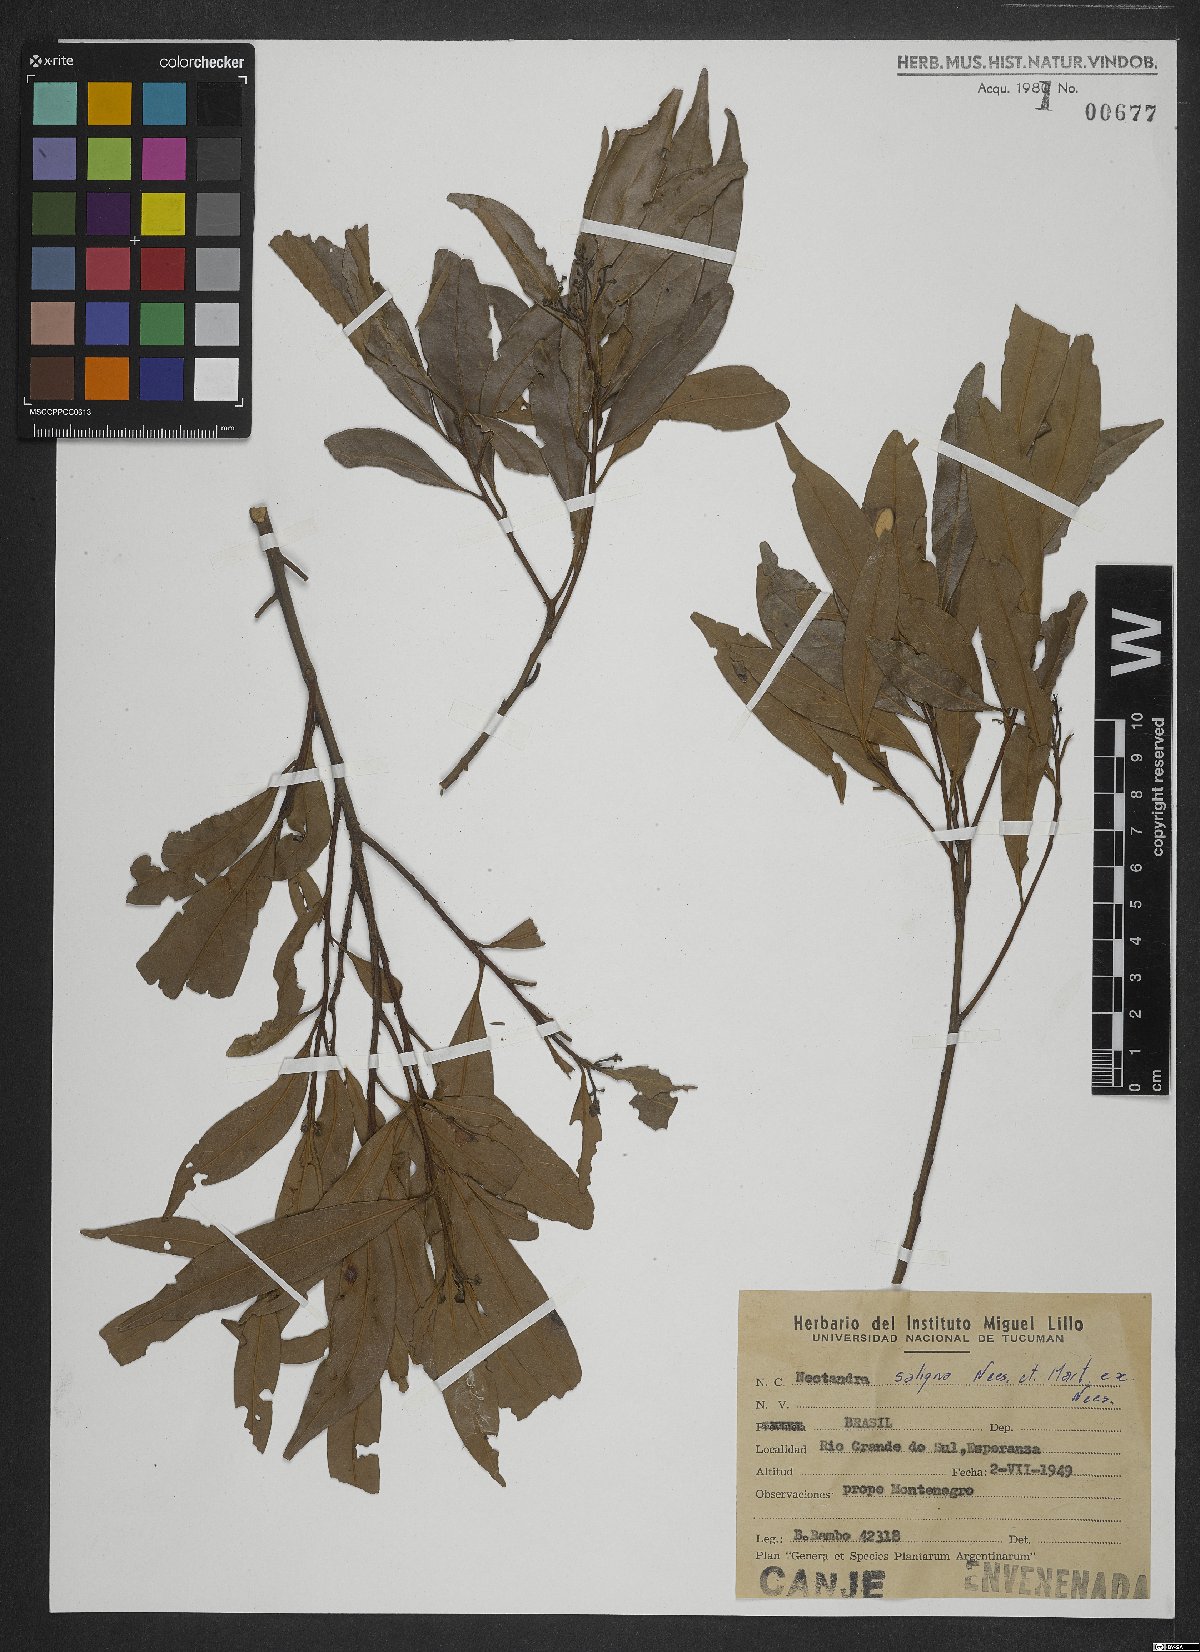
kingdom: Plantae
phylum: Tracheophyta
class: Magnoliopsida
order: Laurales
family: Lauraceae
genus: Nectandra
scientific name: Nectandra megapotamica
